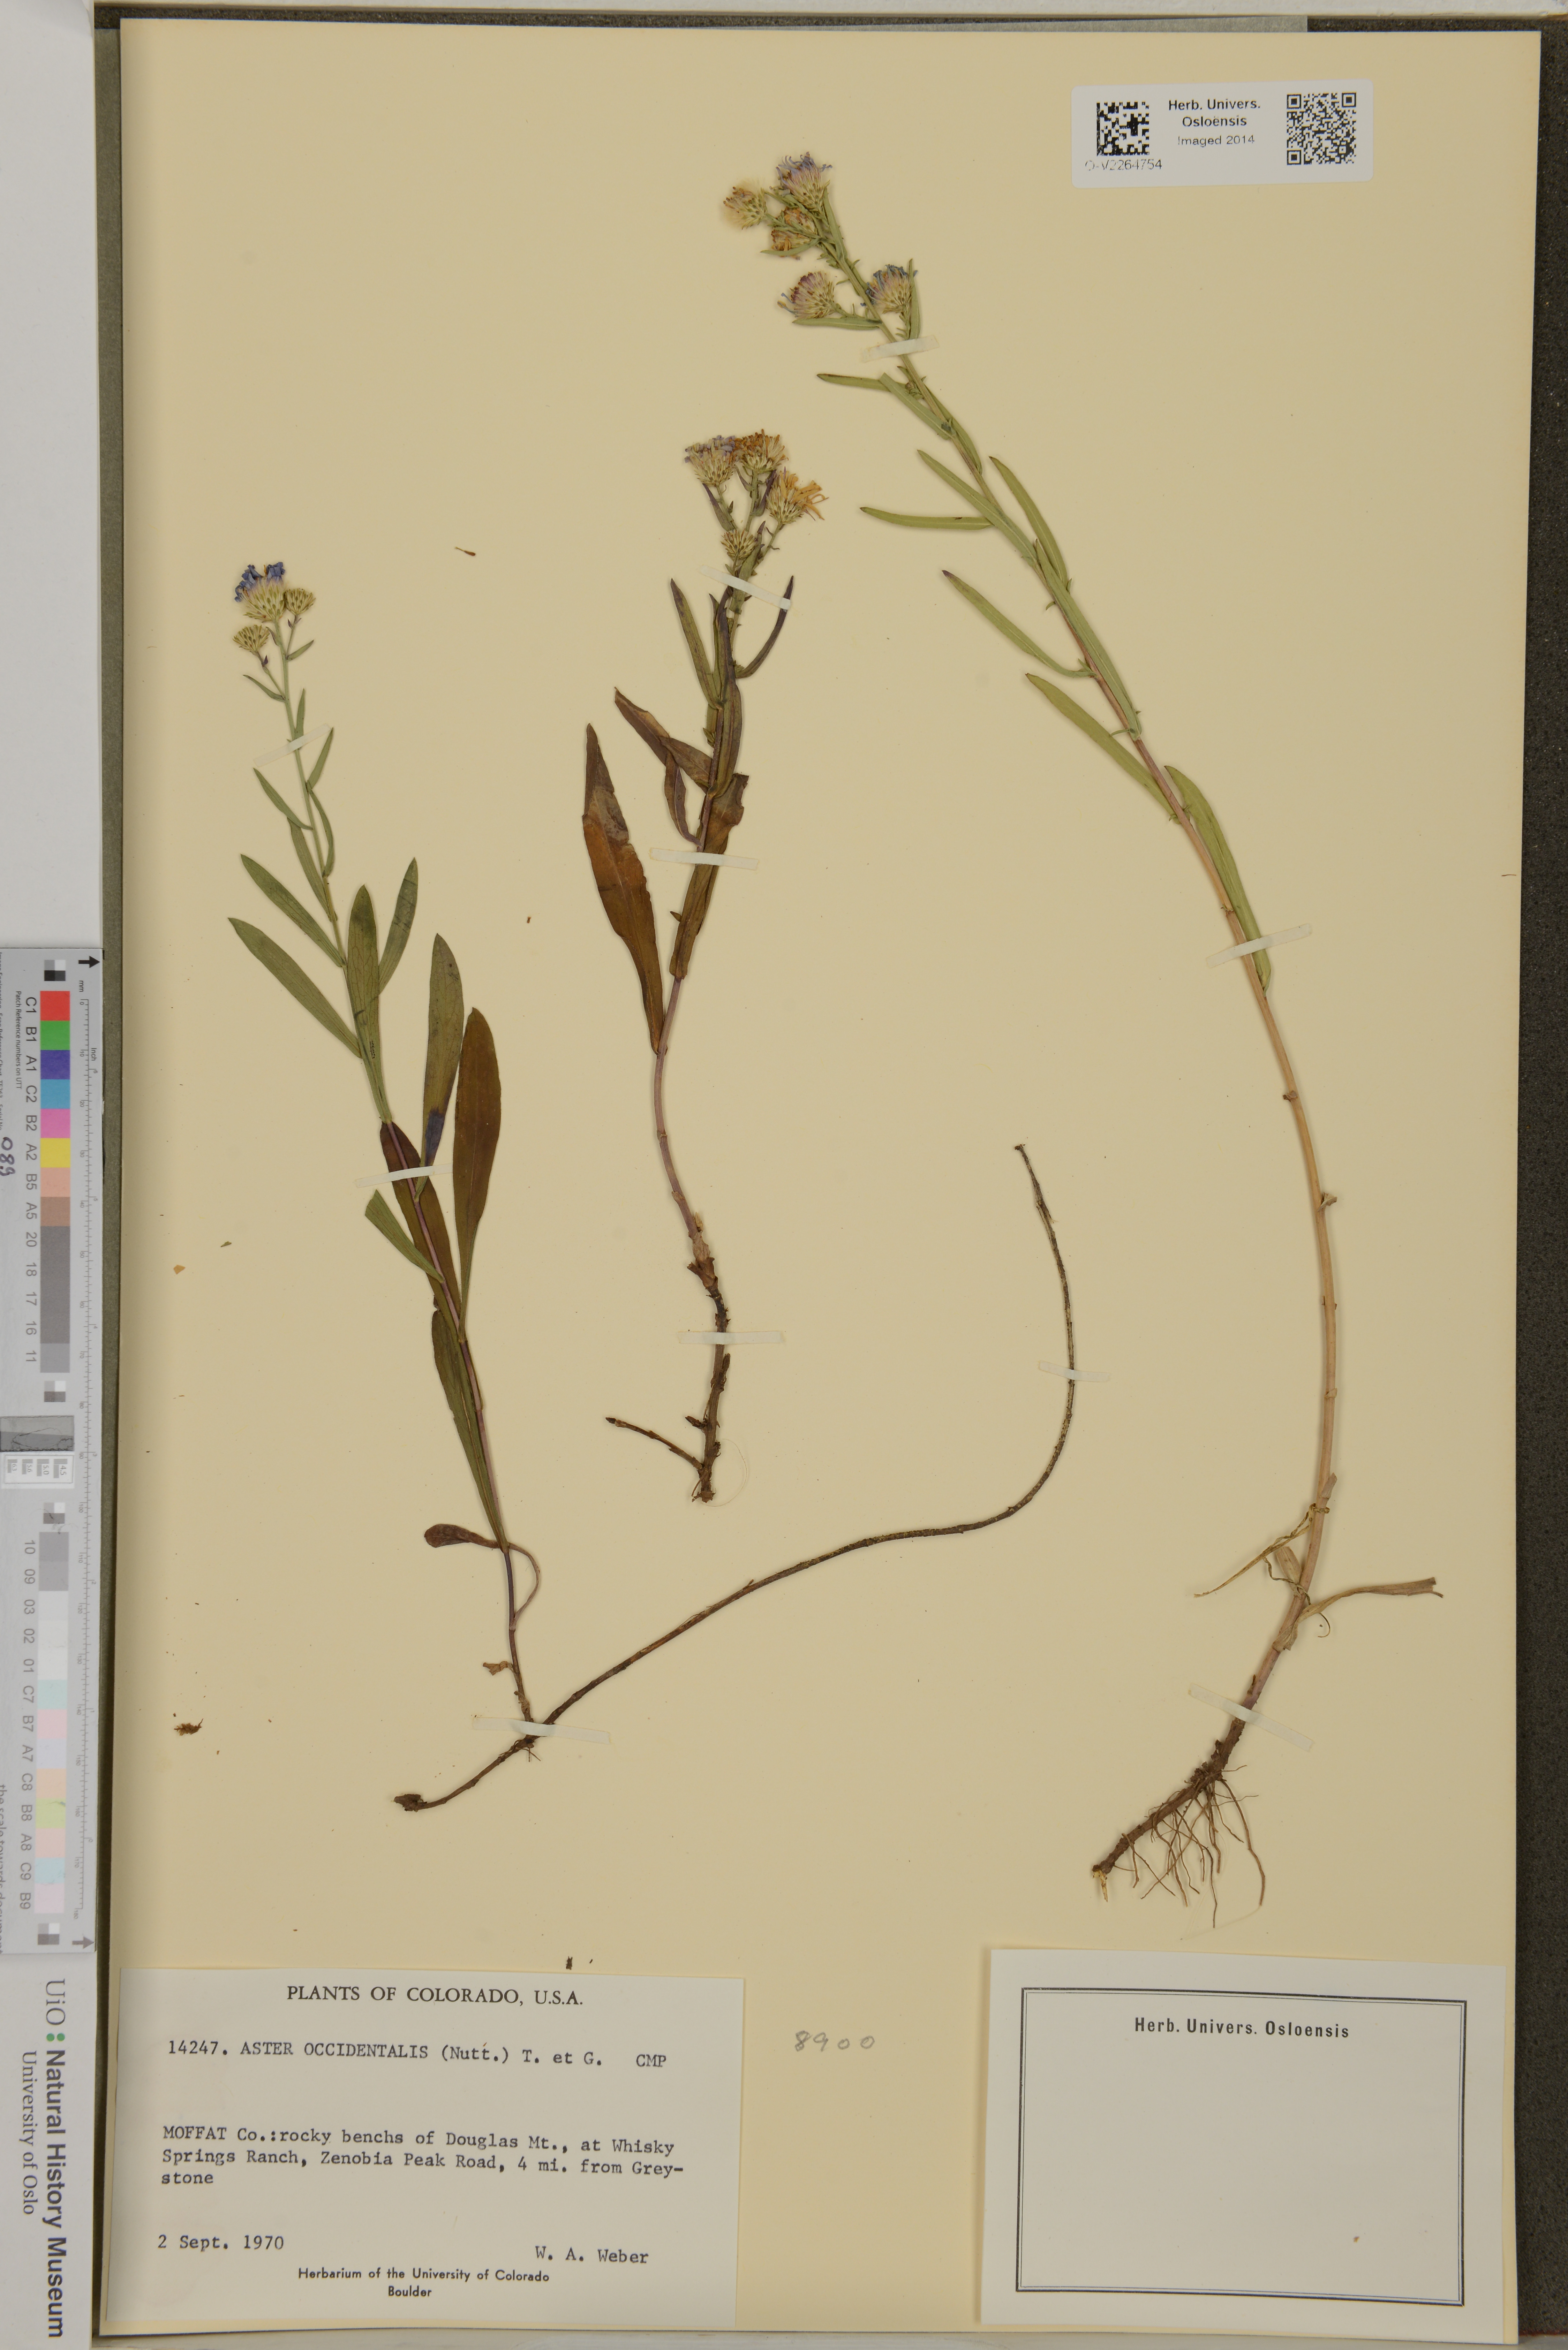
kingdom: Plantae
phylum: Tracheophyta
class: Magnoliopsida
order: Asterales
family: Asteraceae
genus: Symphyotrichum
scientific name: Symphyotrichum spathulatum
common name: Western mountain aster
